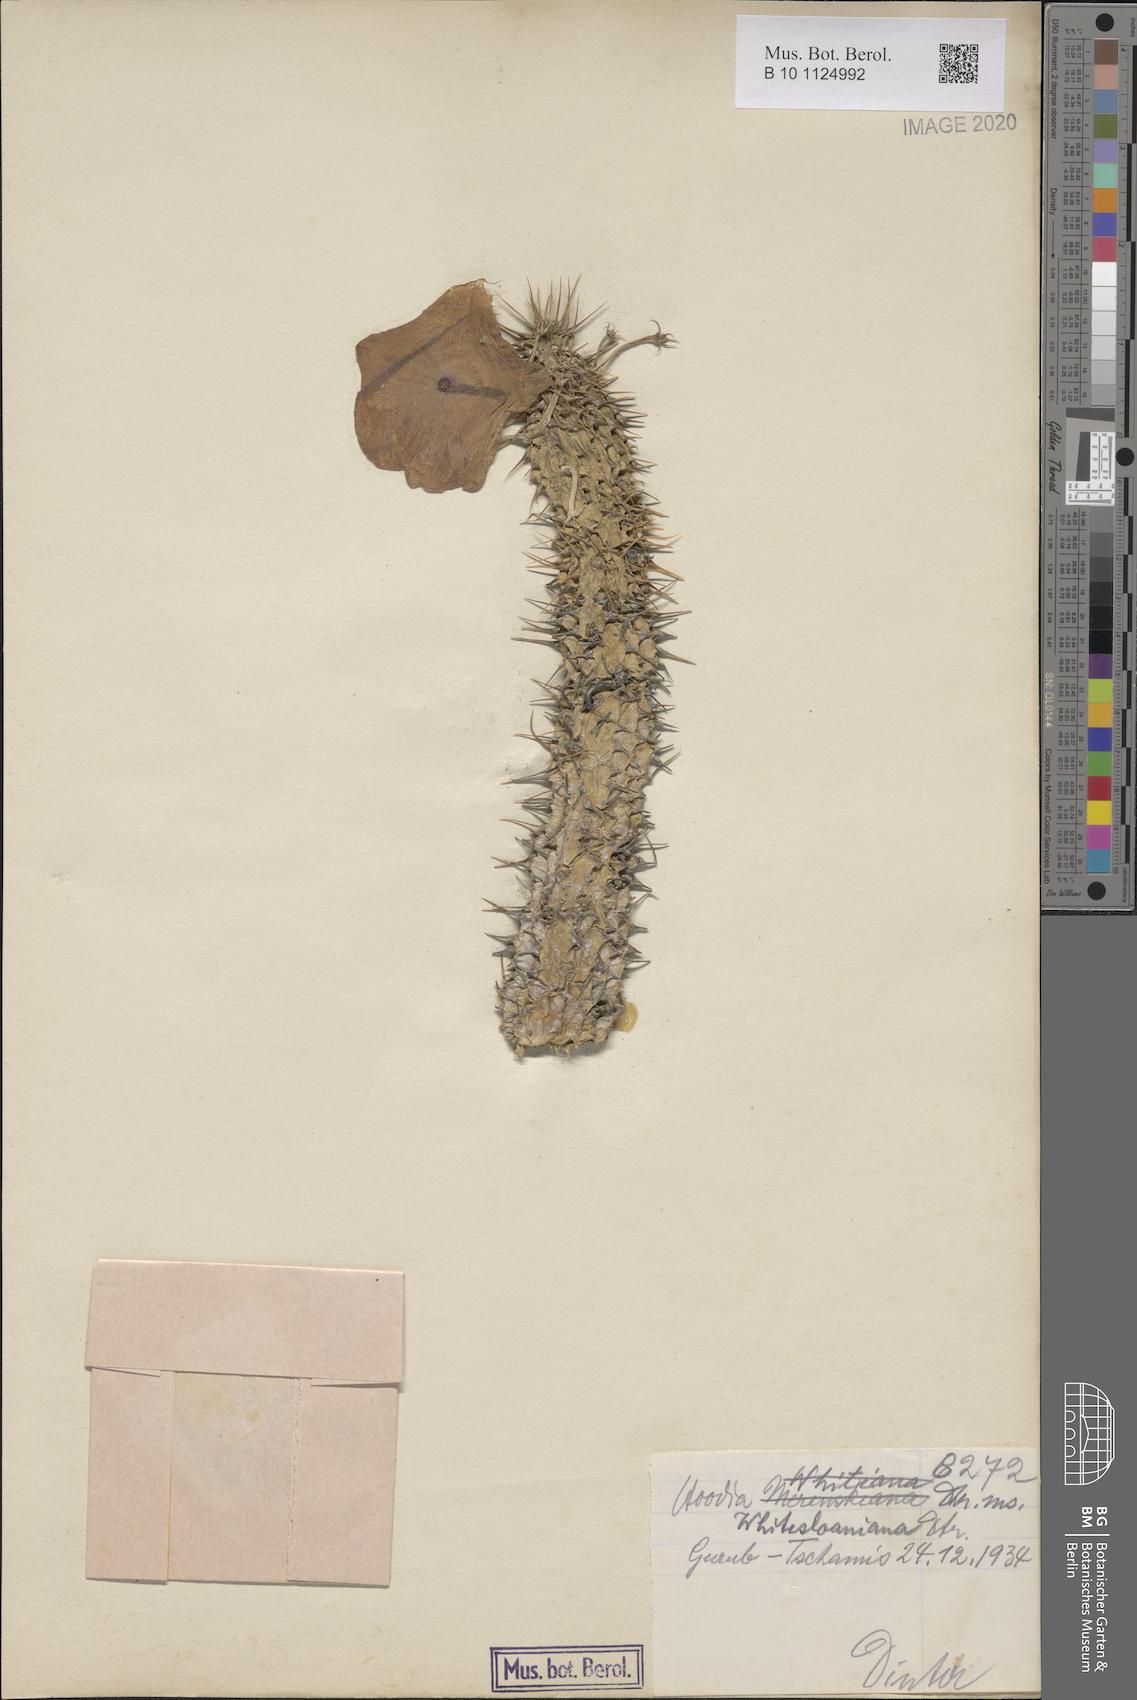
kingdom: Plantae
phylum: Tracheophyta
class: Magnoliopsida
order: Gentianales
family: Apocynaceae
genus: Ceropegia
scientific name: Ceropegia gordonii
